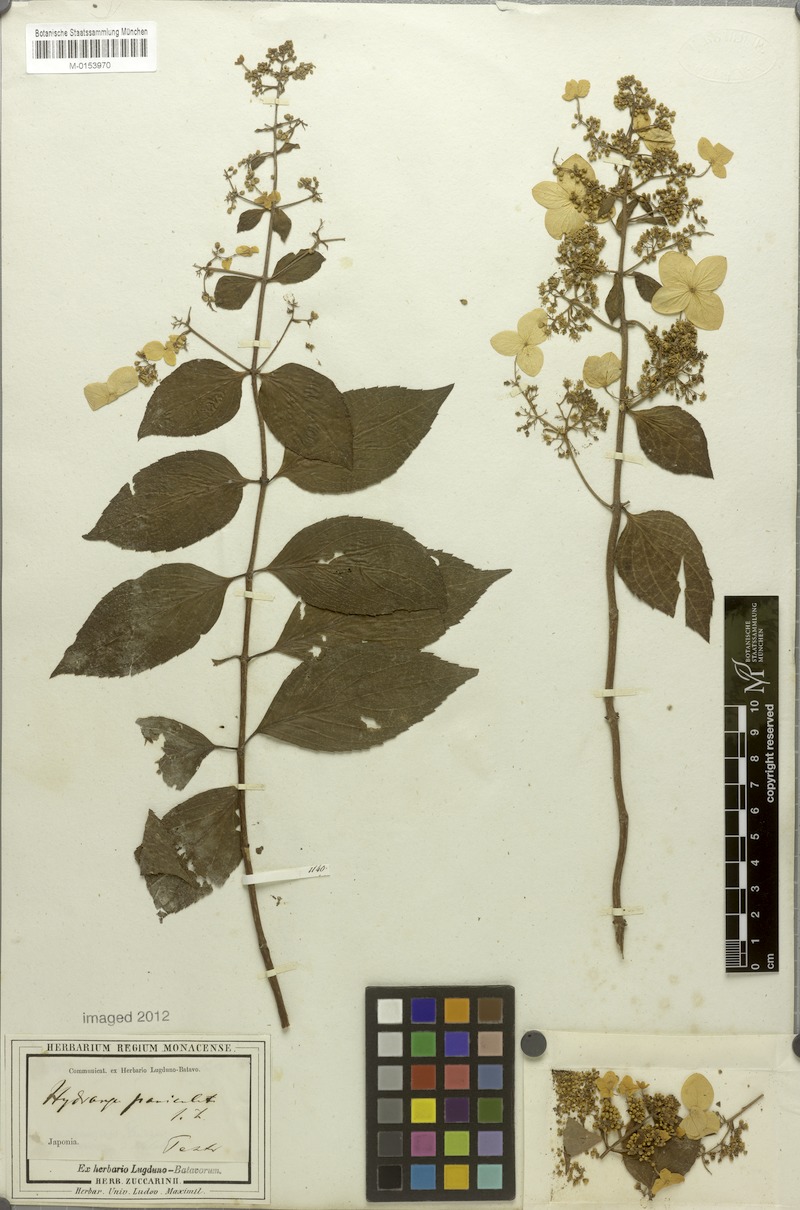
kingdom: Plantae
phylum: Tracheophyta
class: Magnoliopsida
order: Cornales
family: Hydrangeaceae
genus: Hydrangea
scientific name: Hydrangea paniculata
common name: Panicled hydrangea
